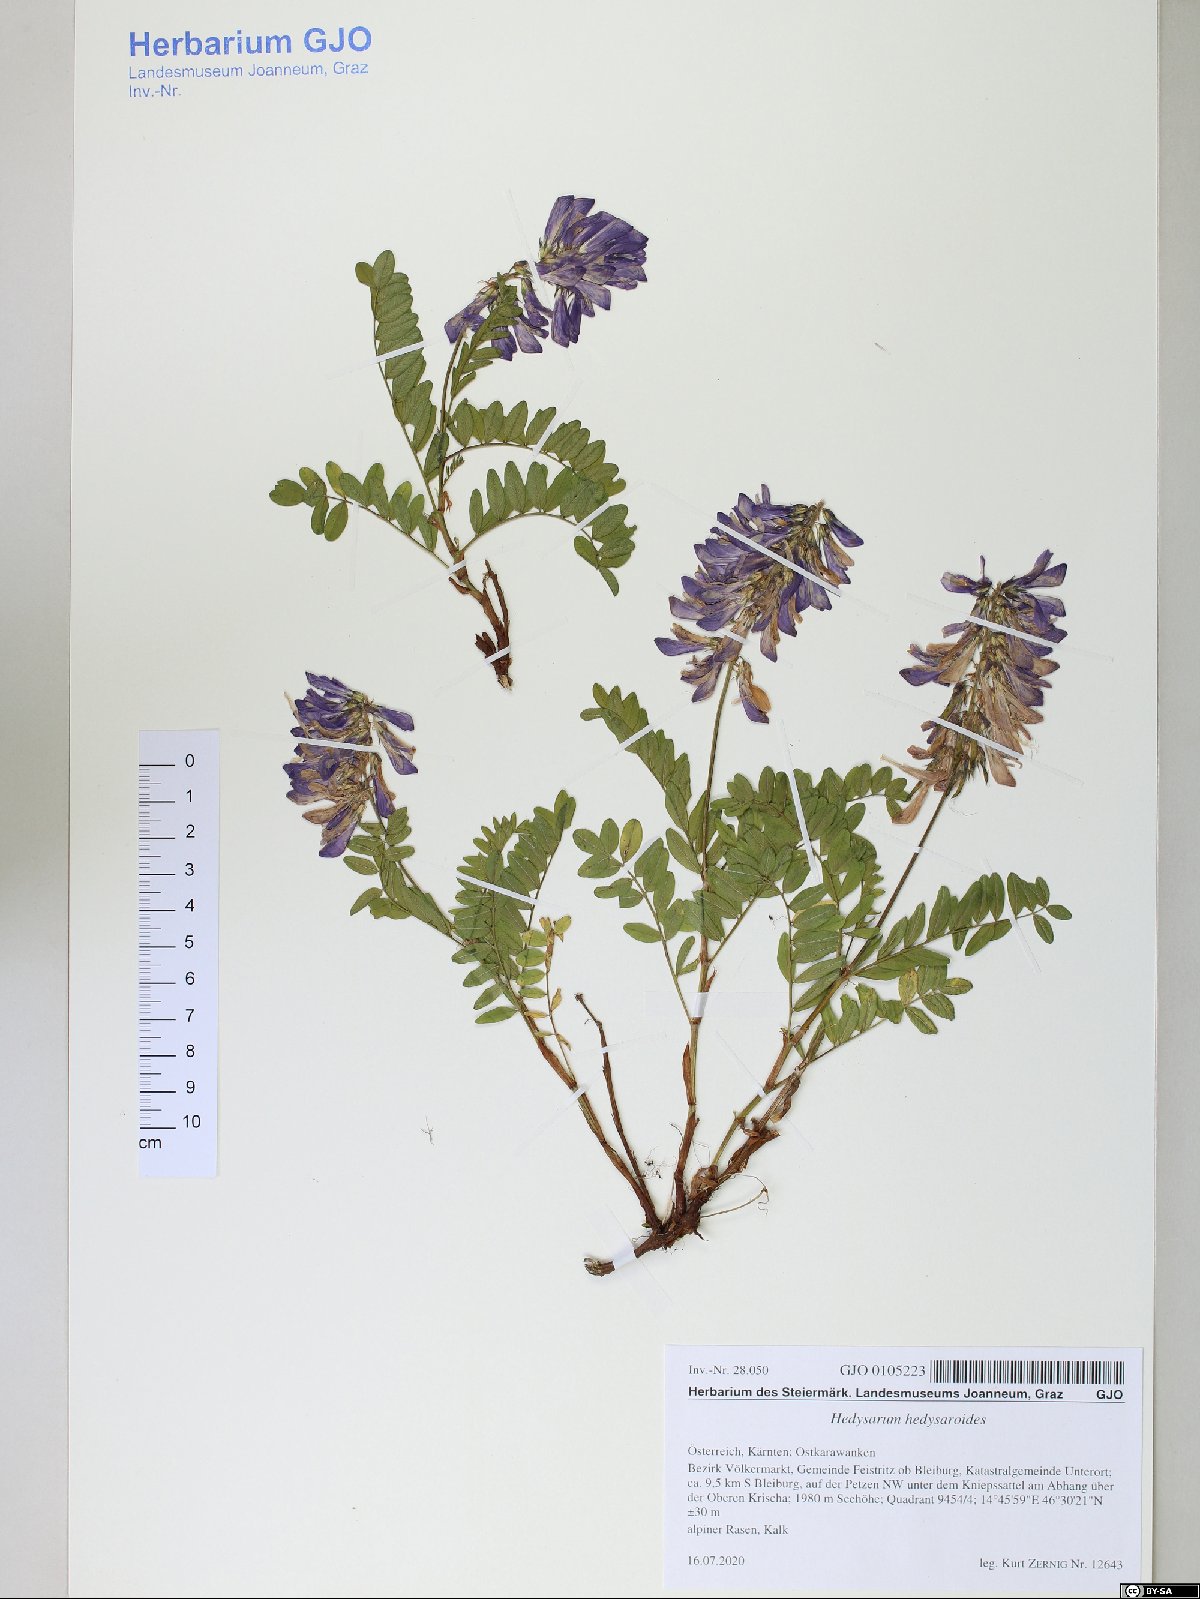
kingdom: Plantae
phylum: Tracheophyta
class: Magnoliopsida
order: Fabales
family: Fabaceae
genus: Hedysarum
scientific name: Hedysarum hedysaroides
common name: Alpine french-honeysuckle
